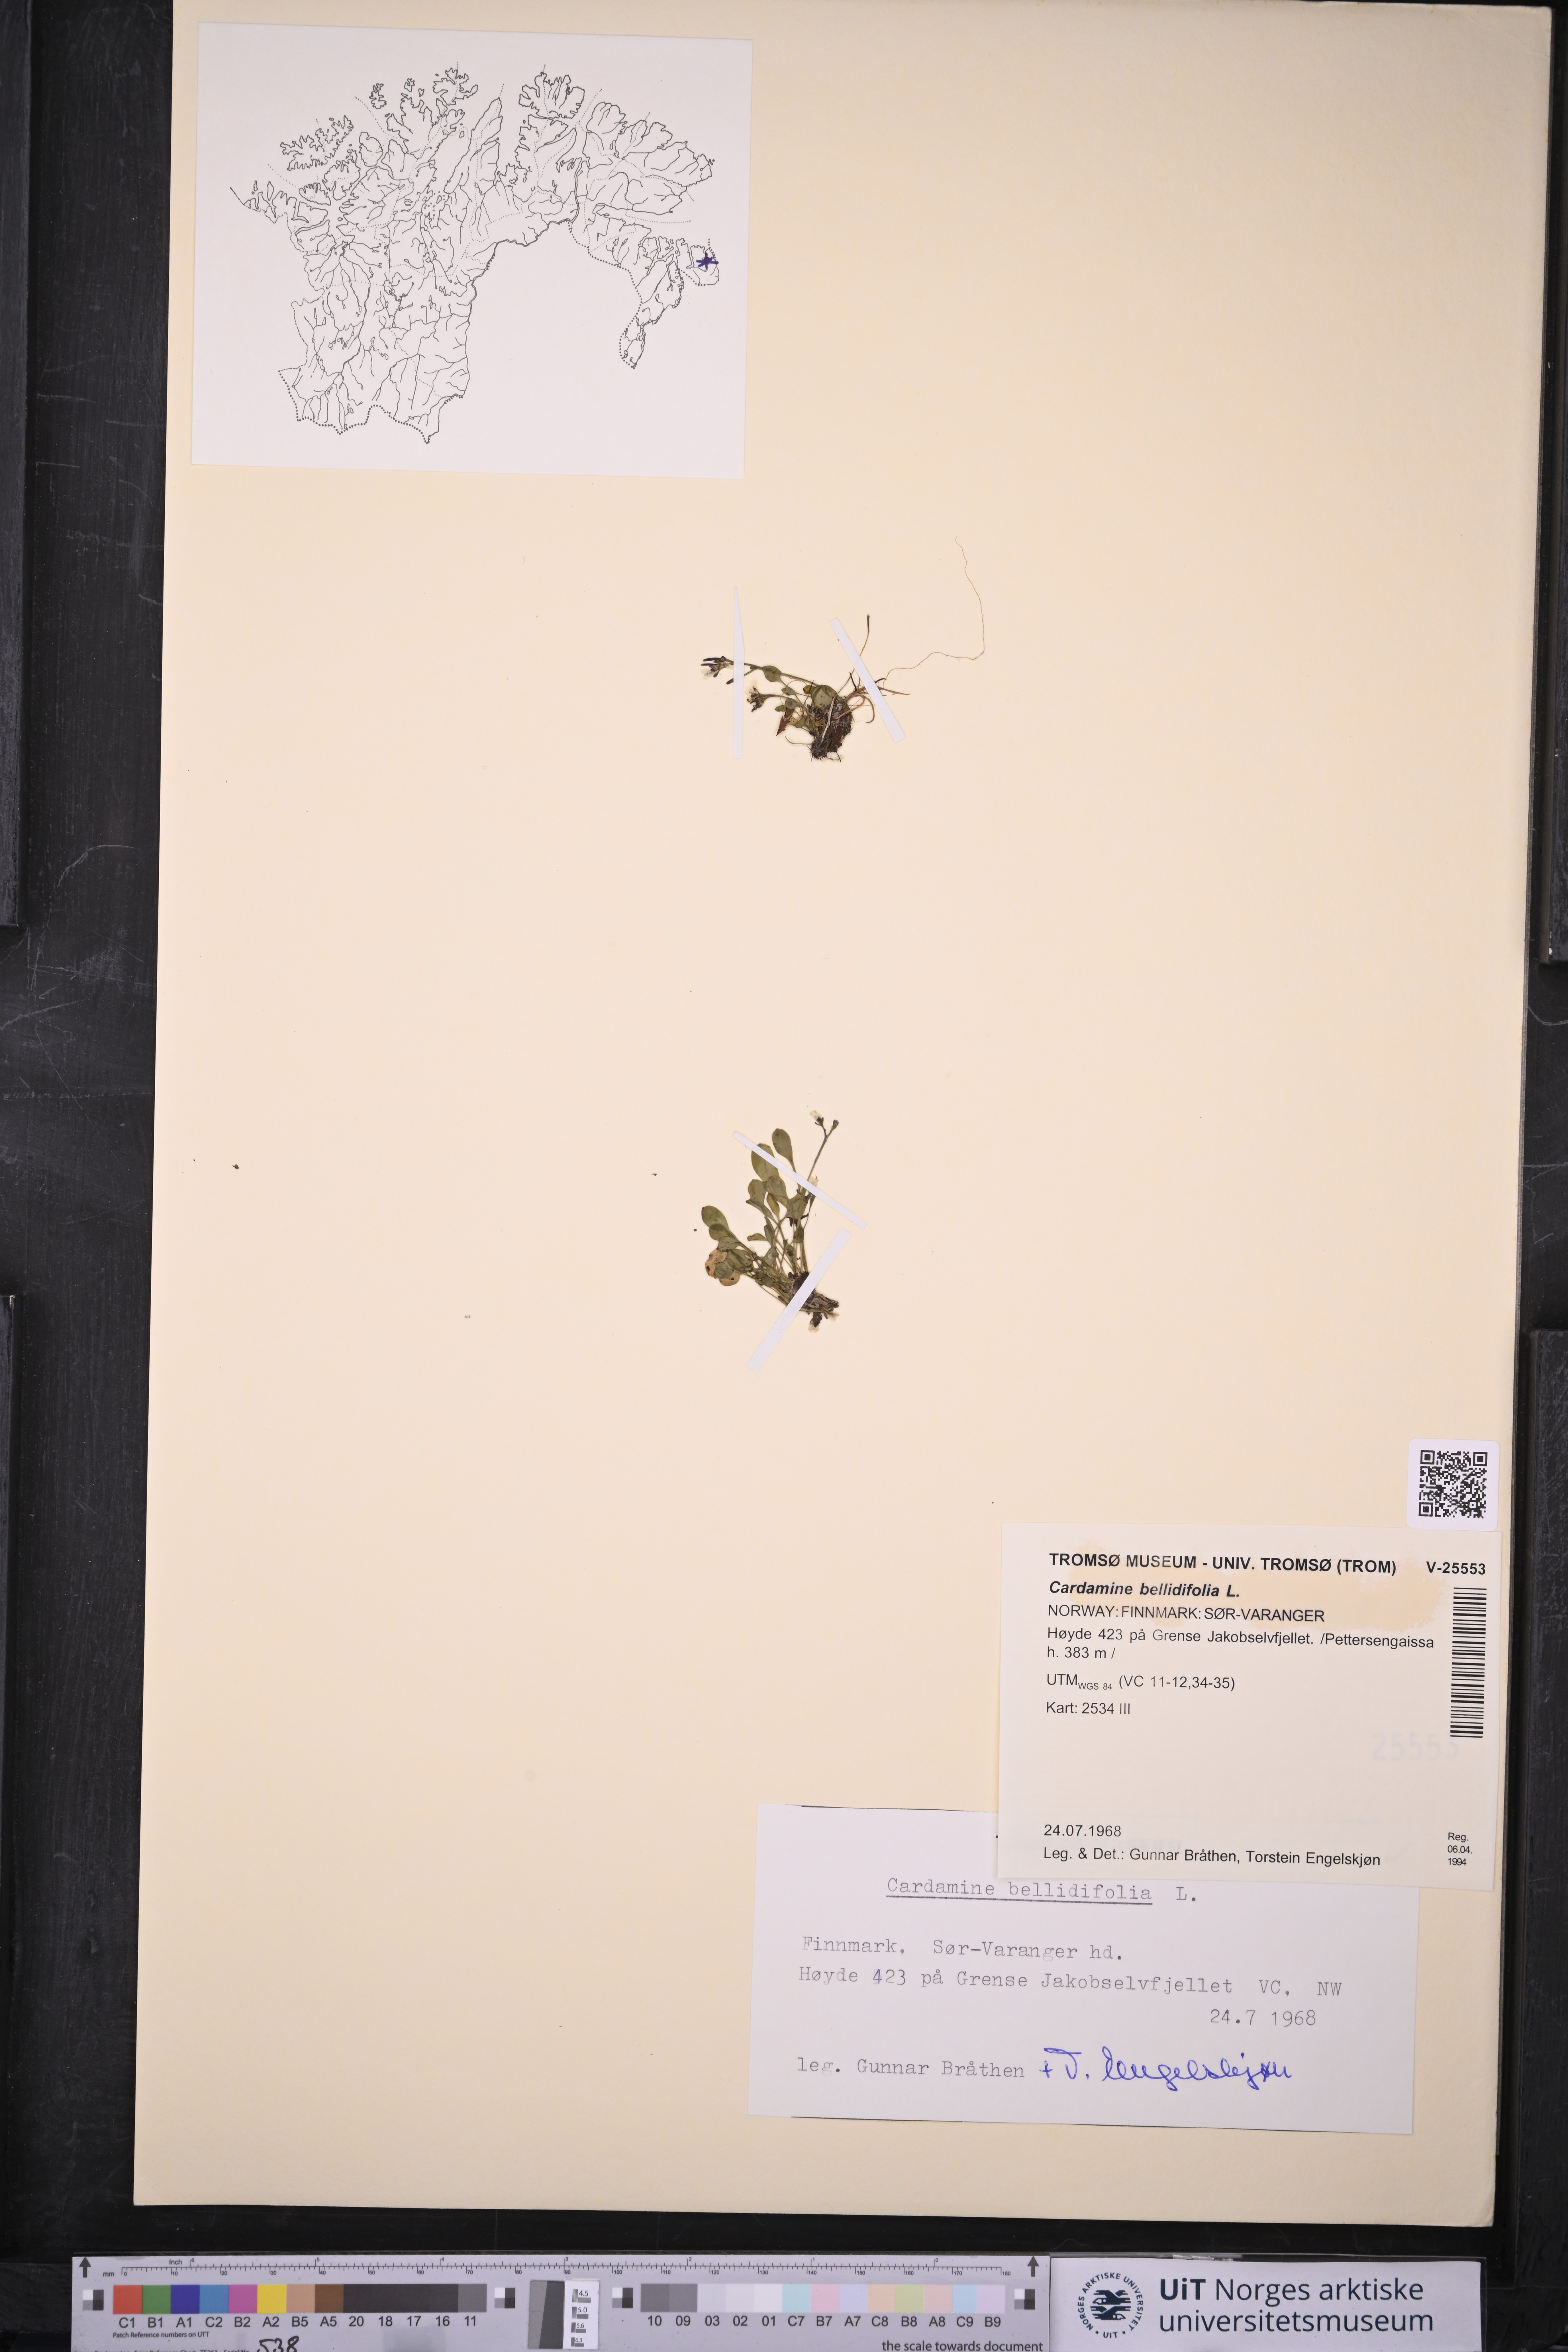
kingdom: Plantae
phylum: Tracheophyta
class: Magnoliopsida
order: Brassicales
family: Brassicaceae
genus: Cardamine
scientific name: Cardamine bellidifolia
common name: Alpine bittercress
